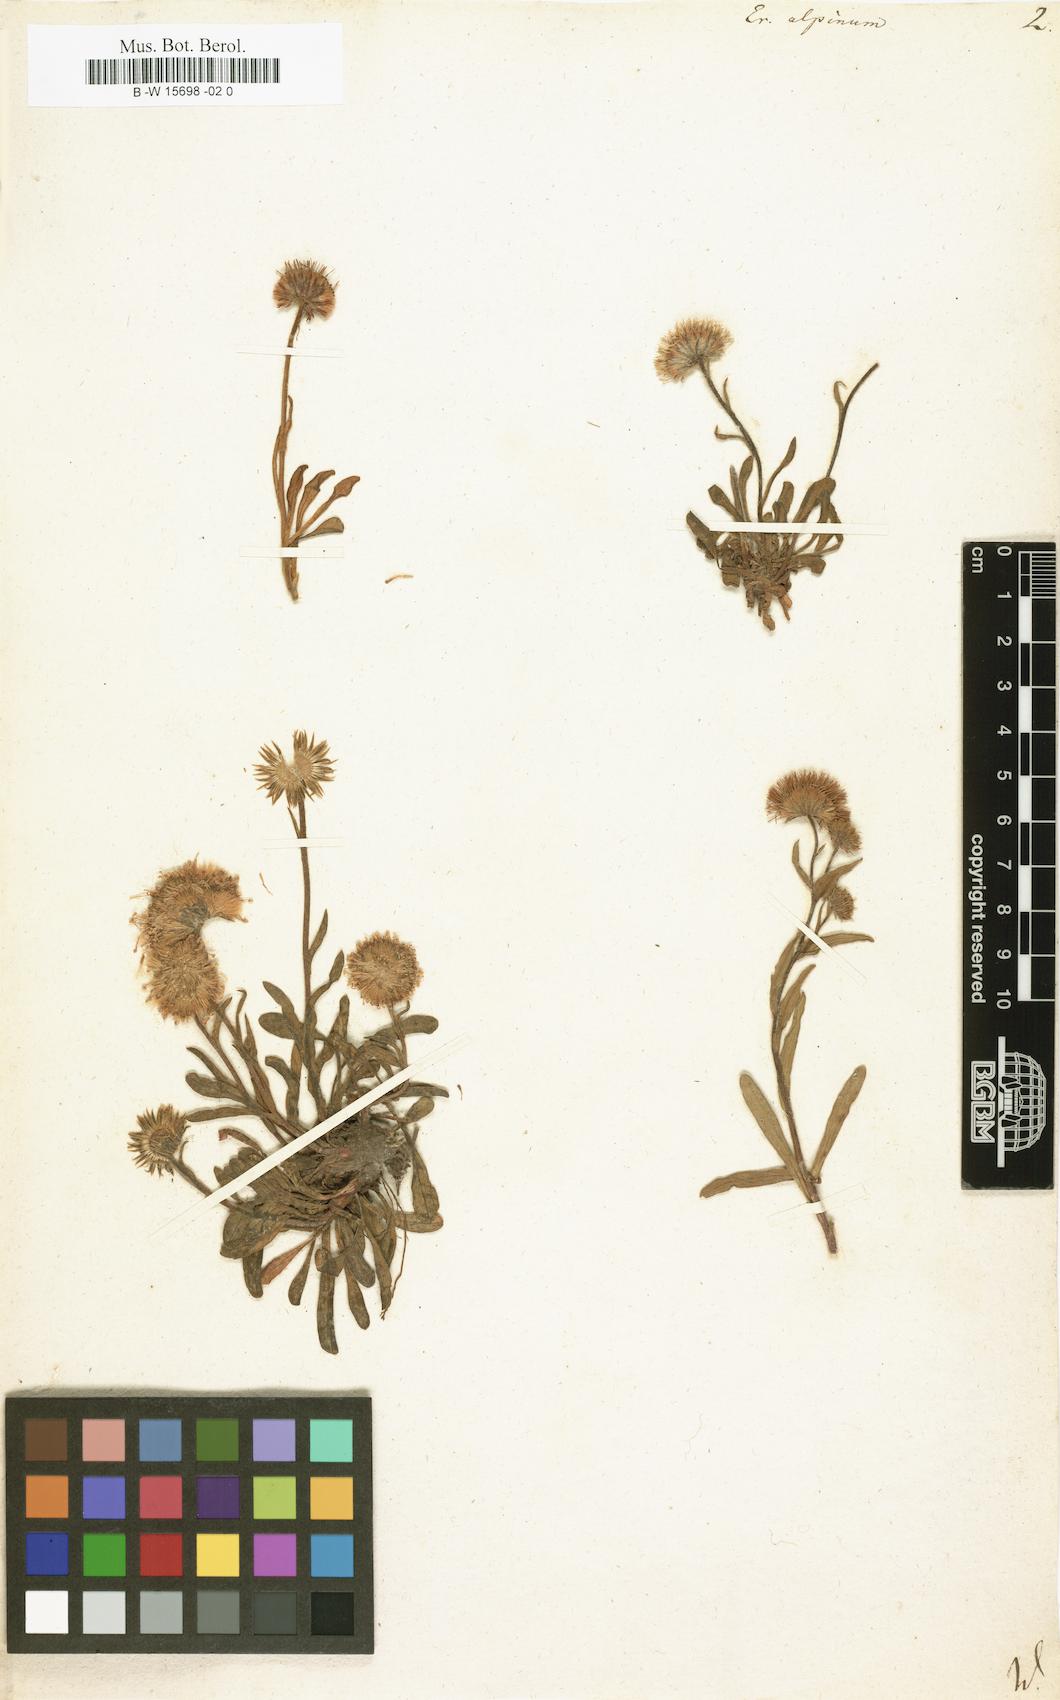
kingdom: Plantae
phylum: Tracheophyta
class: Magnoliopsida
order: Asterales
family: Asteraceae
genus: Erigeron
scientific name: Erigeron alpinus
